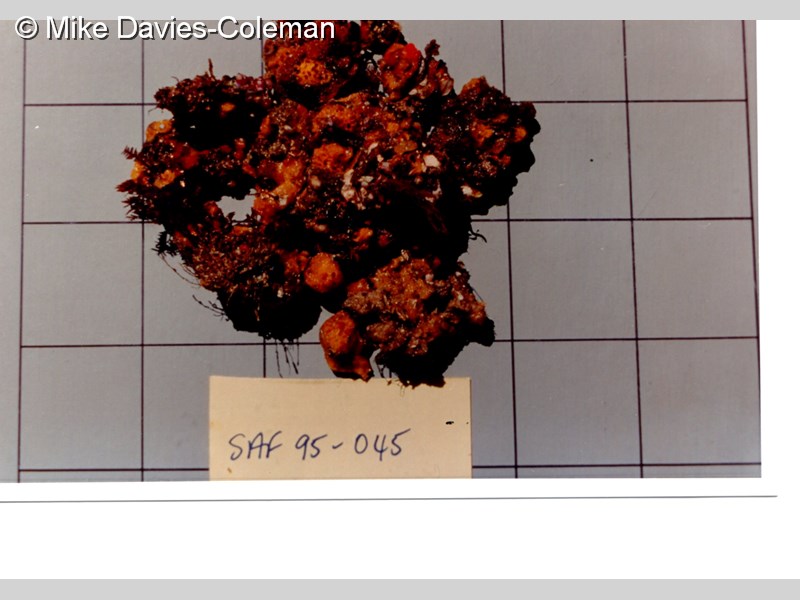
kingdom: Animalia
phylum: Porifera
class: Demospongiae
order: Poecilosclerida
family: Tedaniidae
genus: Tedania
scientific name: Tedania tubulifera
